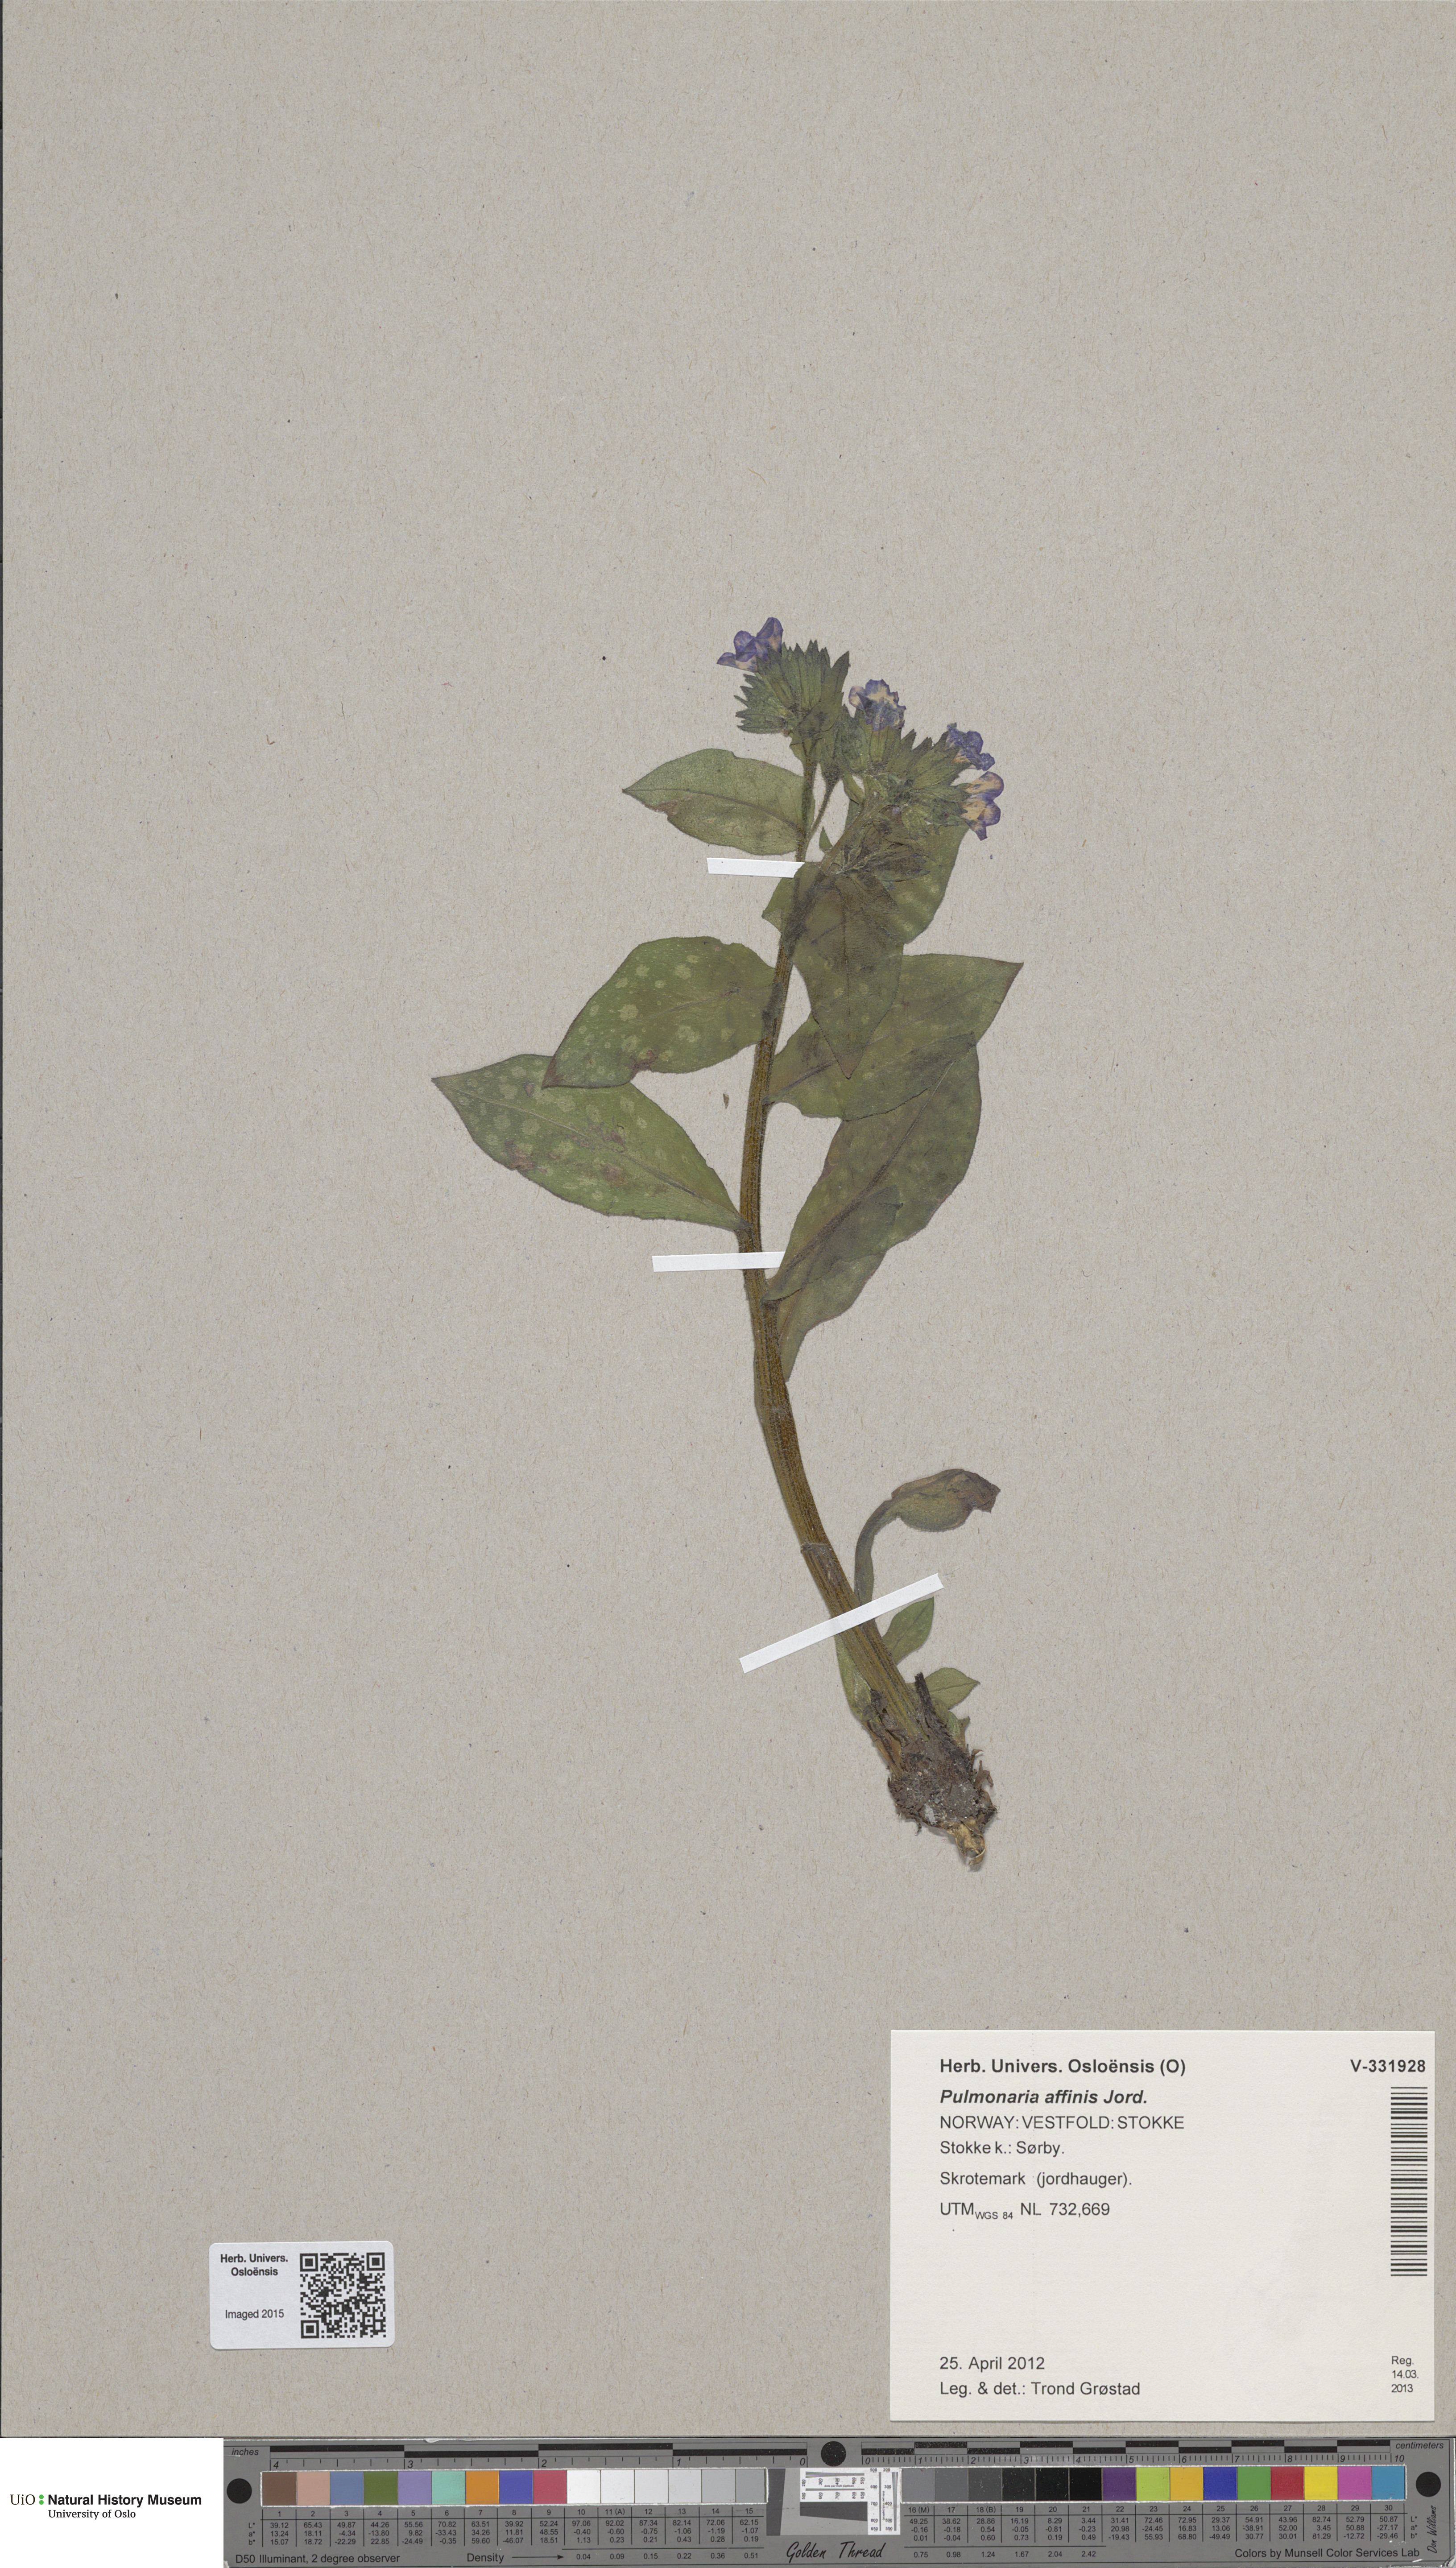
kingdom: Plantae
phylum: Tracheophyta
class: Magnoliopsida
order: Boraginales
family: Boraginaceae
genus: Pulmonaria
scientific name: Pulmonaria officinalis
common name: Lungwort
